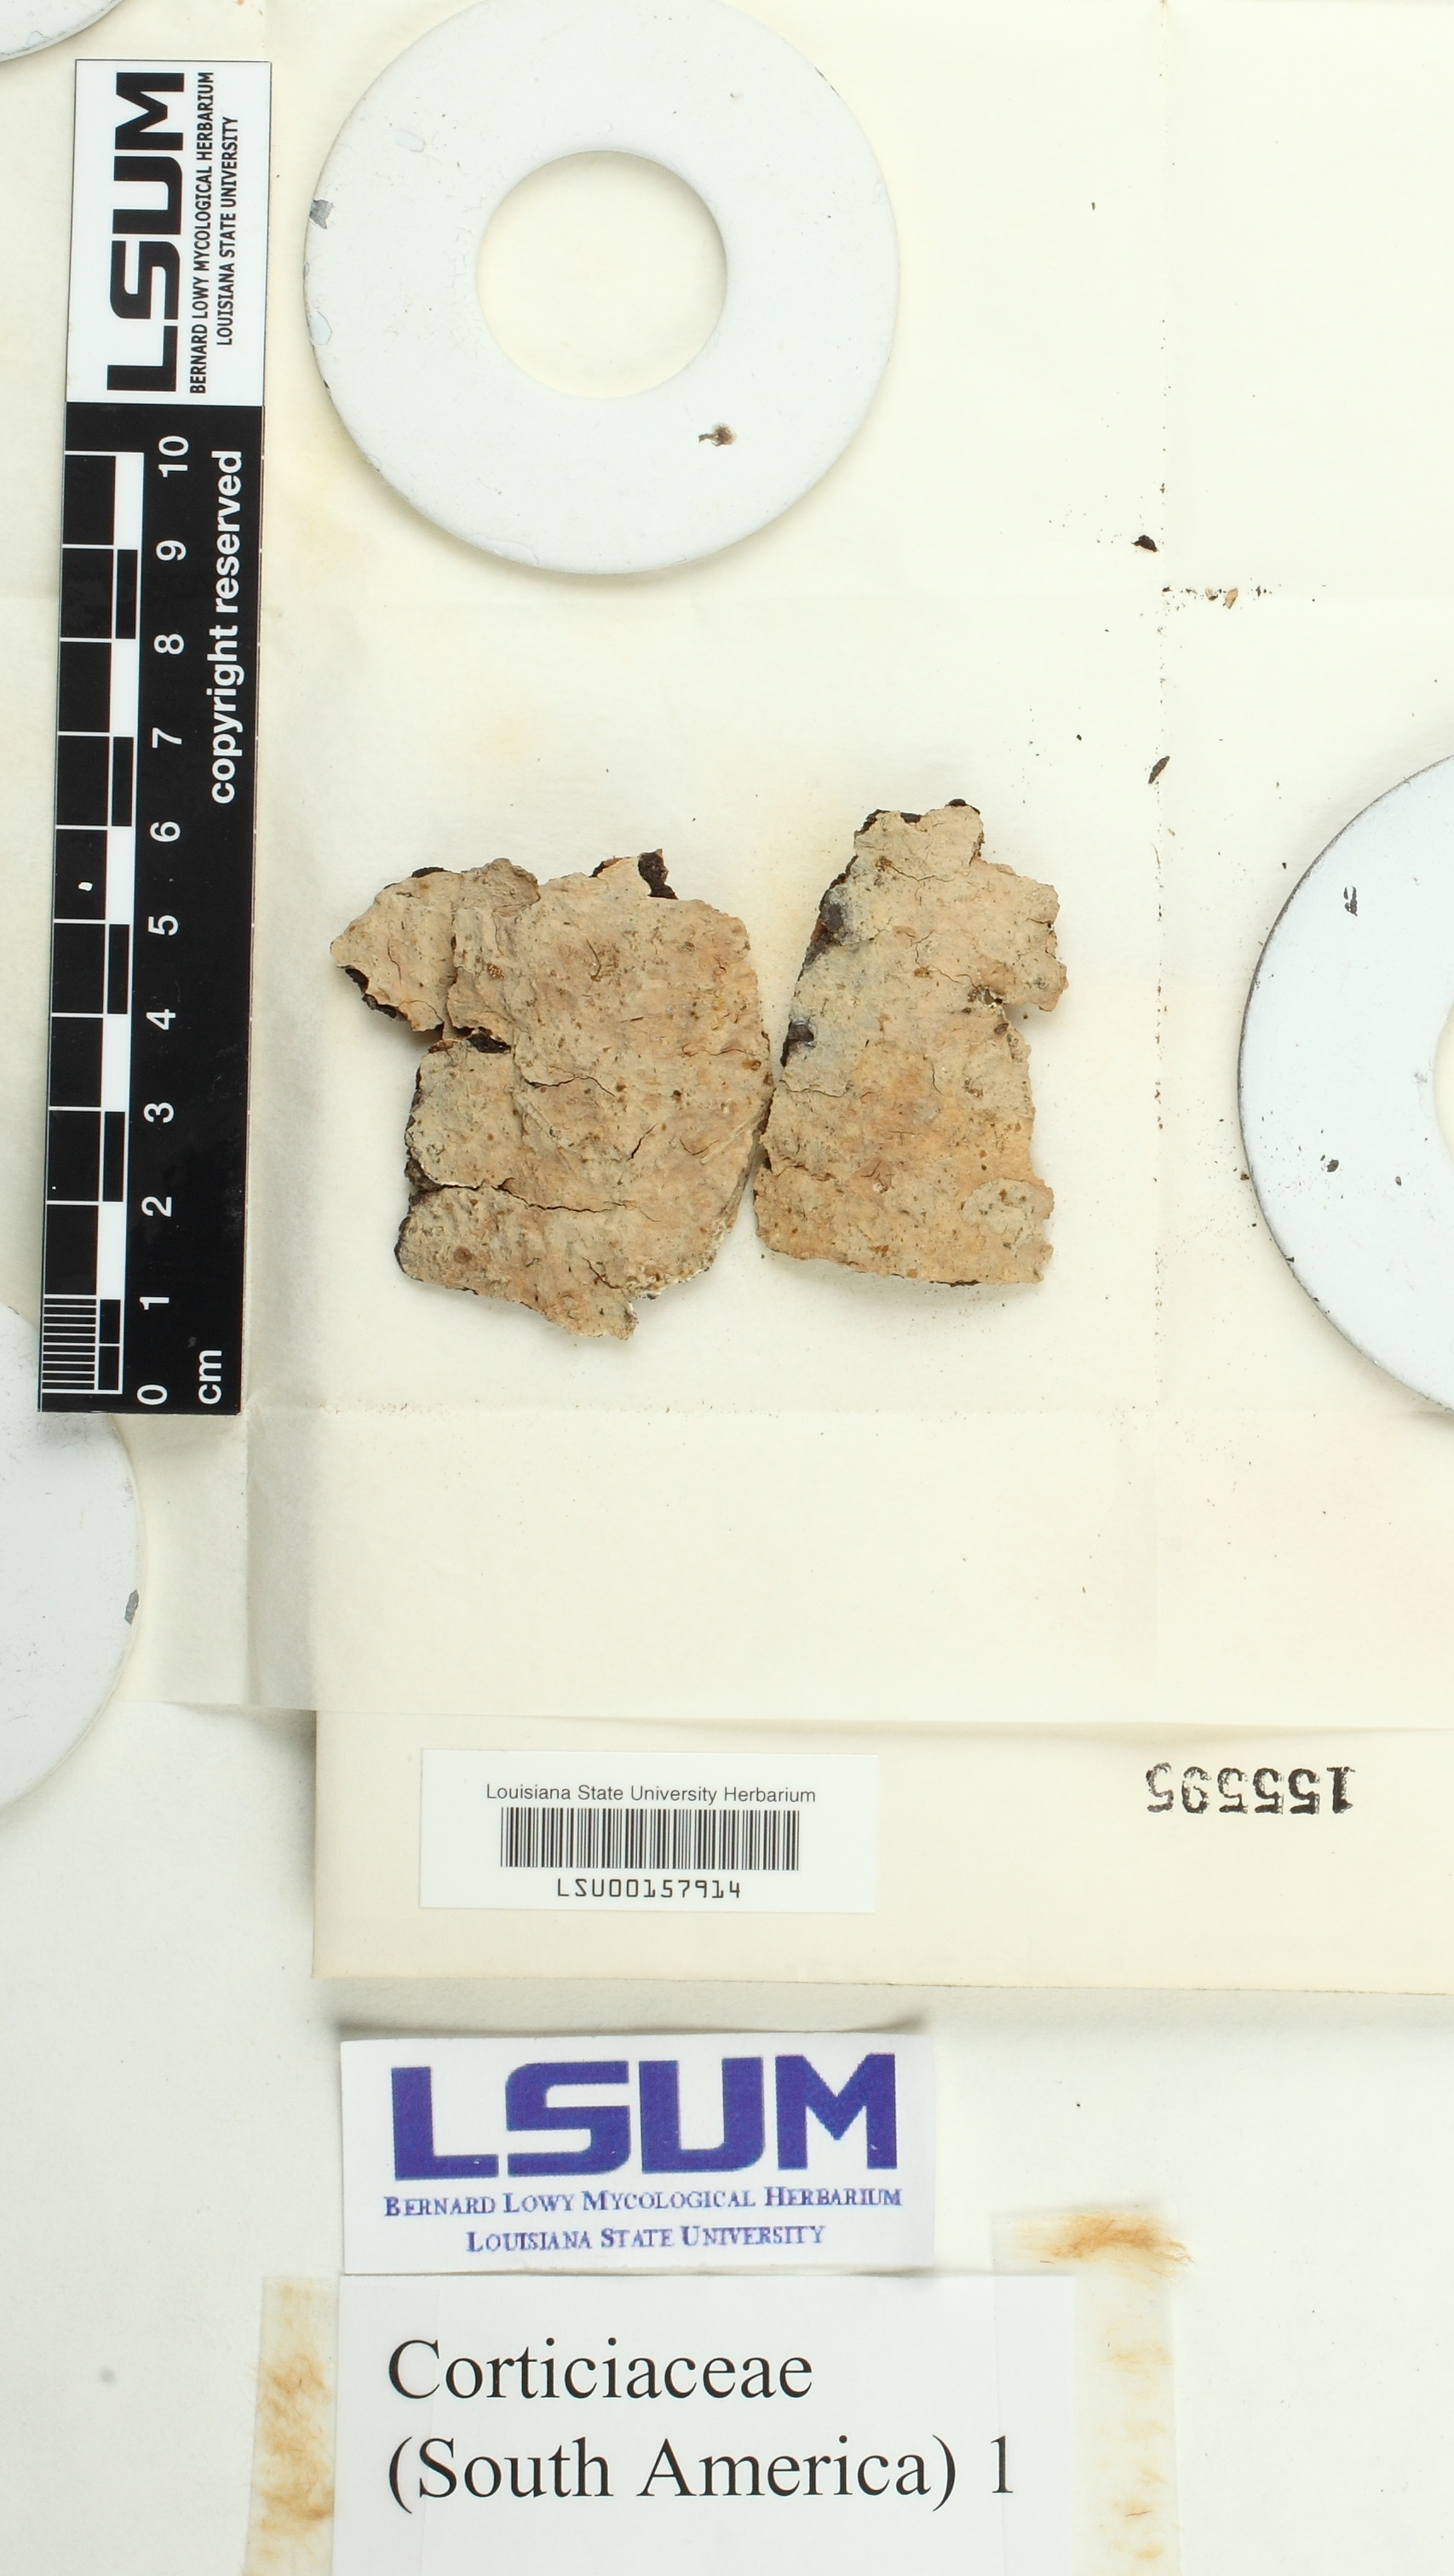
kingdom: Fungi
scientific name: Fungi
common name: Fungi
